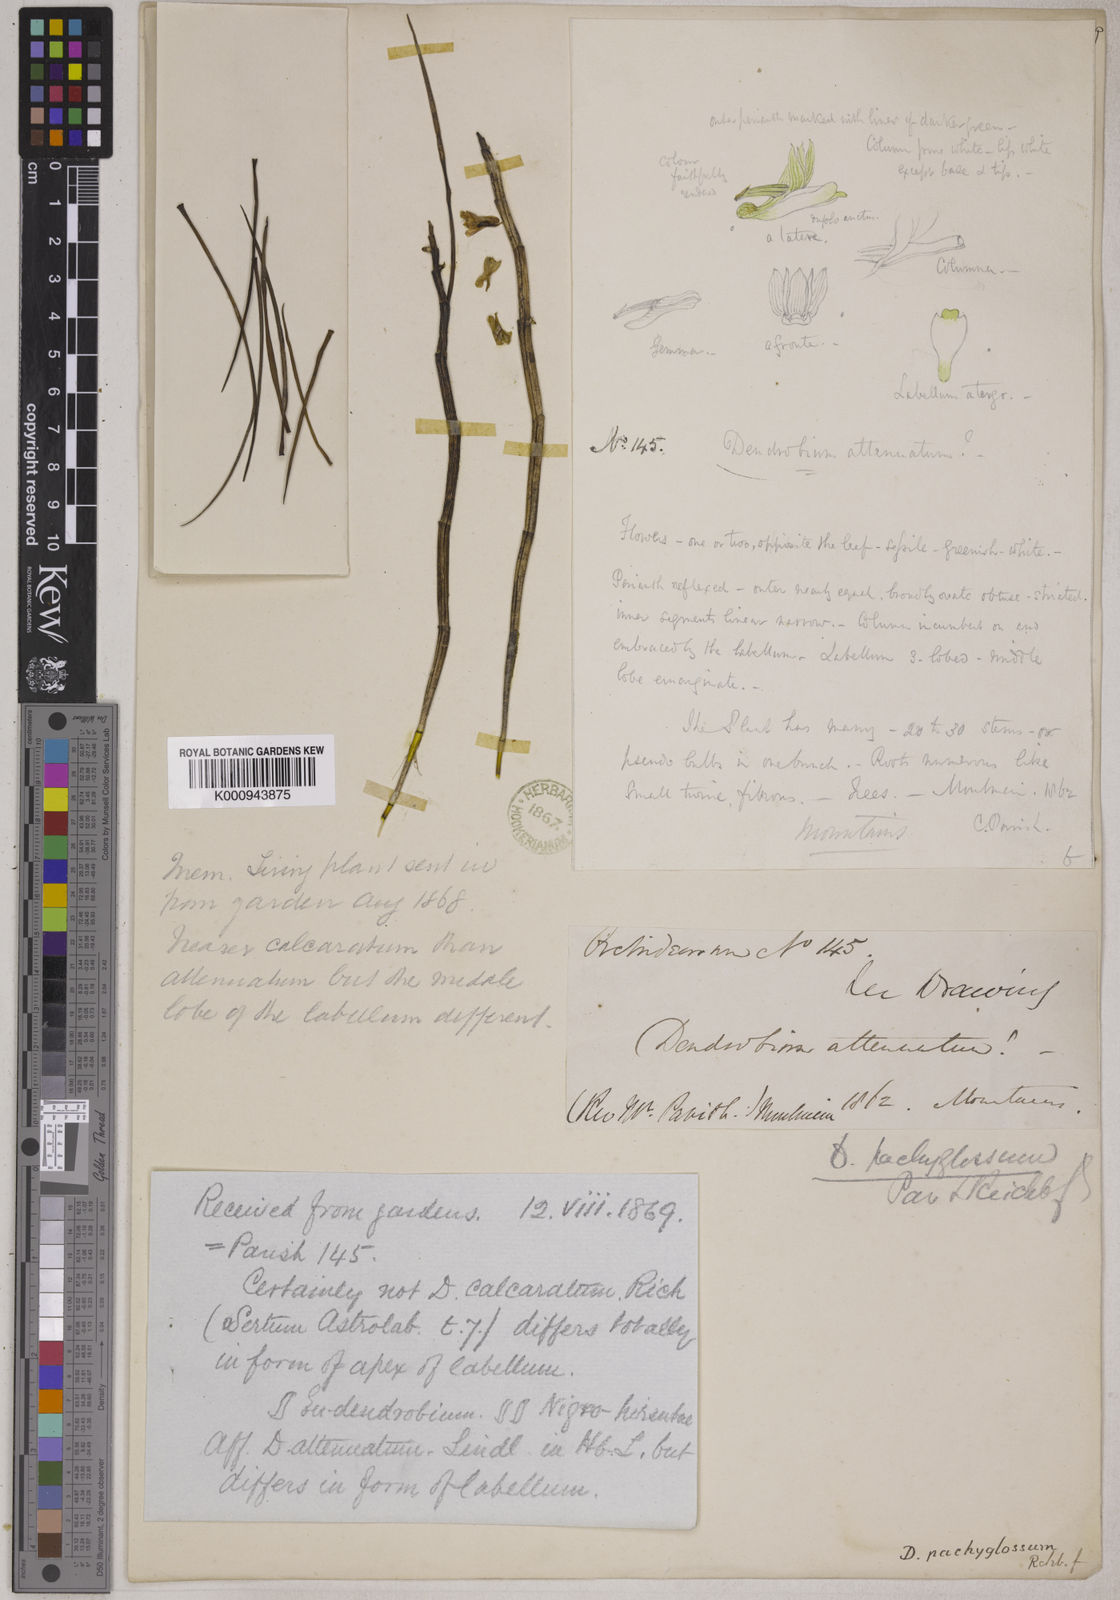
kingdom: Plantae
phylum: Tracheophyta
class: Liliopsida
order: Asparagales
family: Orchidaceae
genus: Dendrobium
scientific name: Dendrobium pachyglossum
